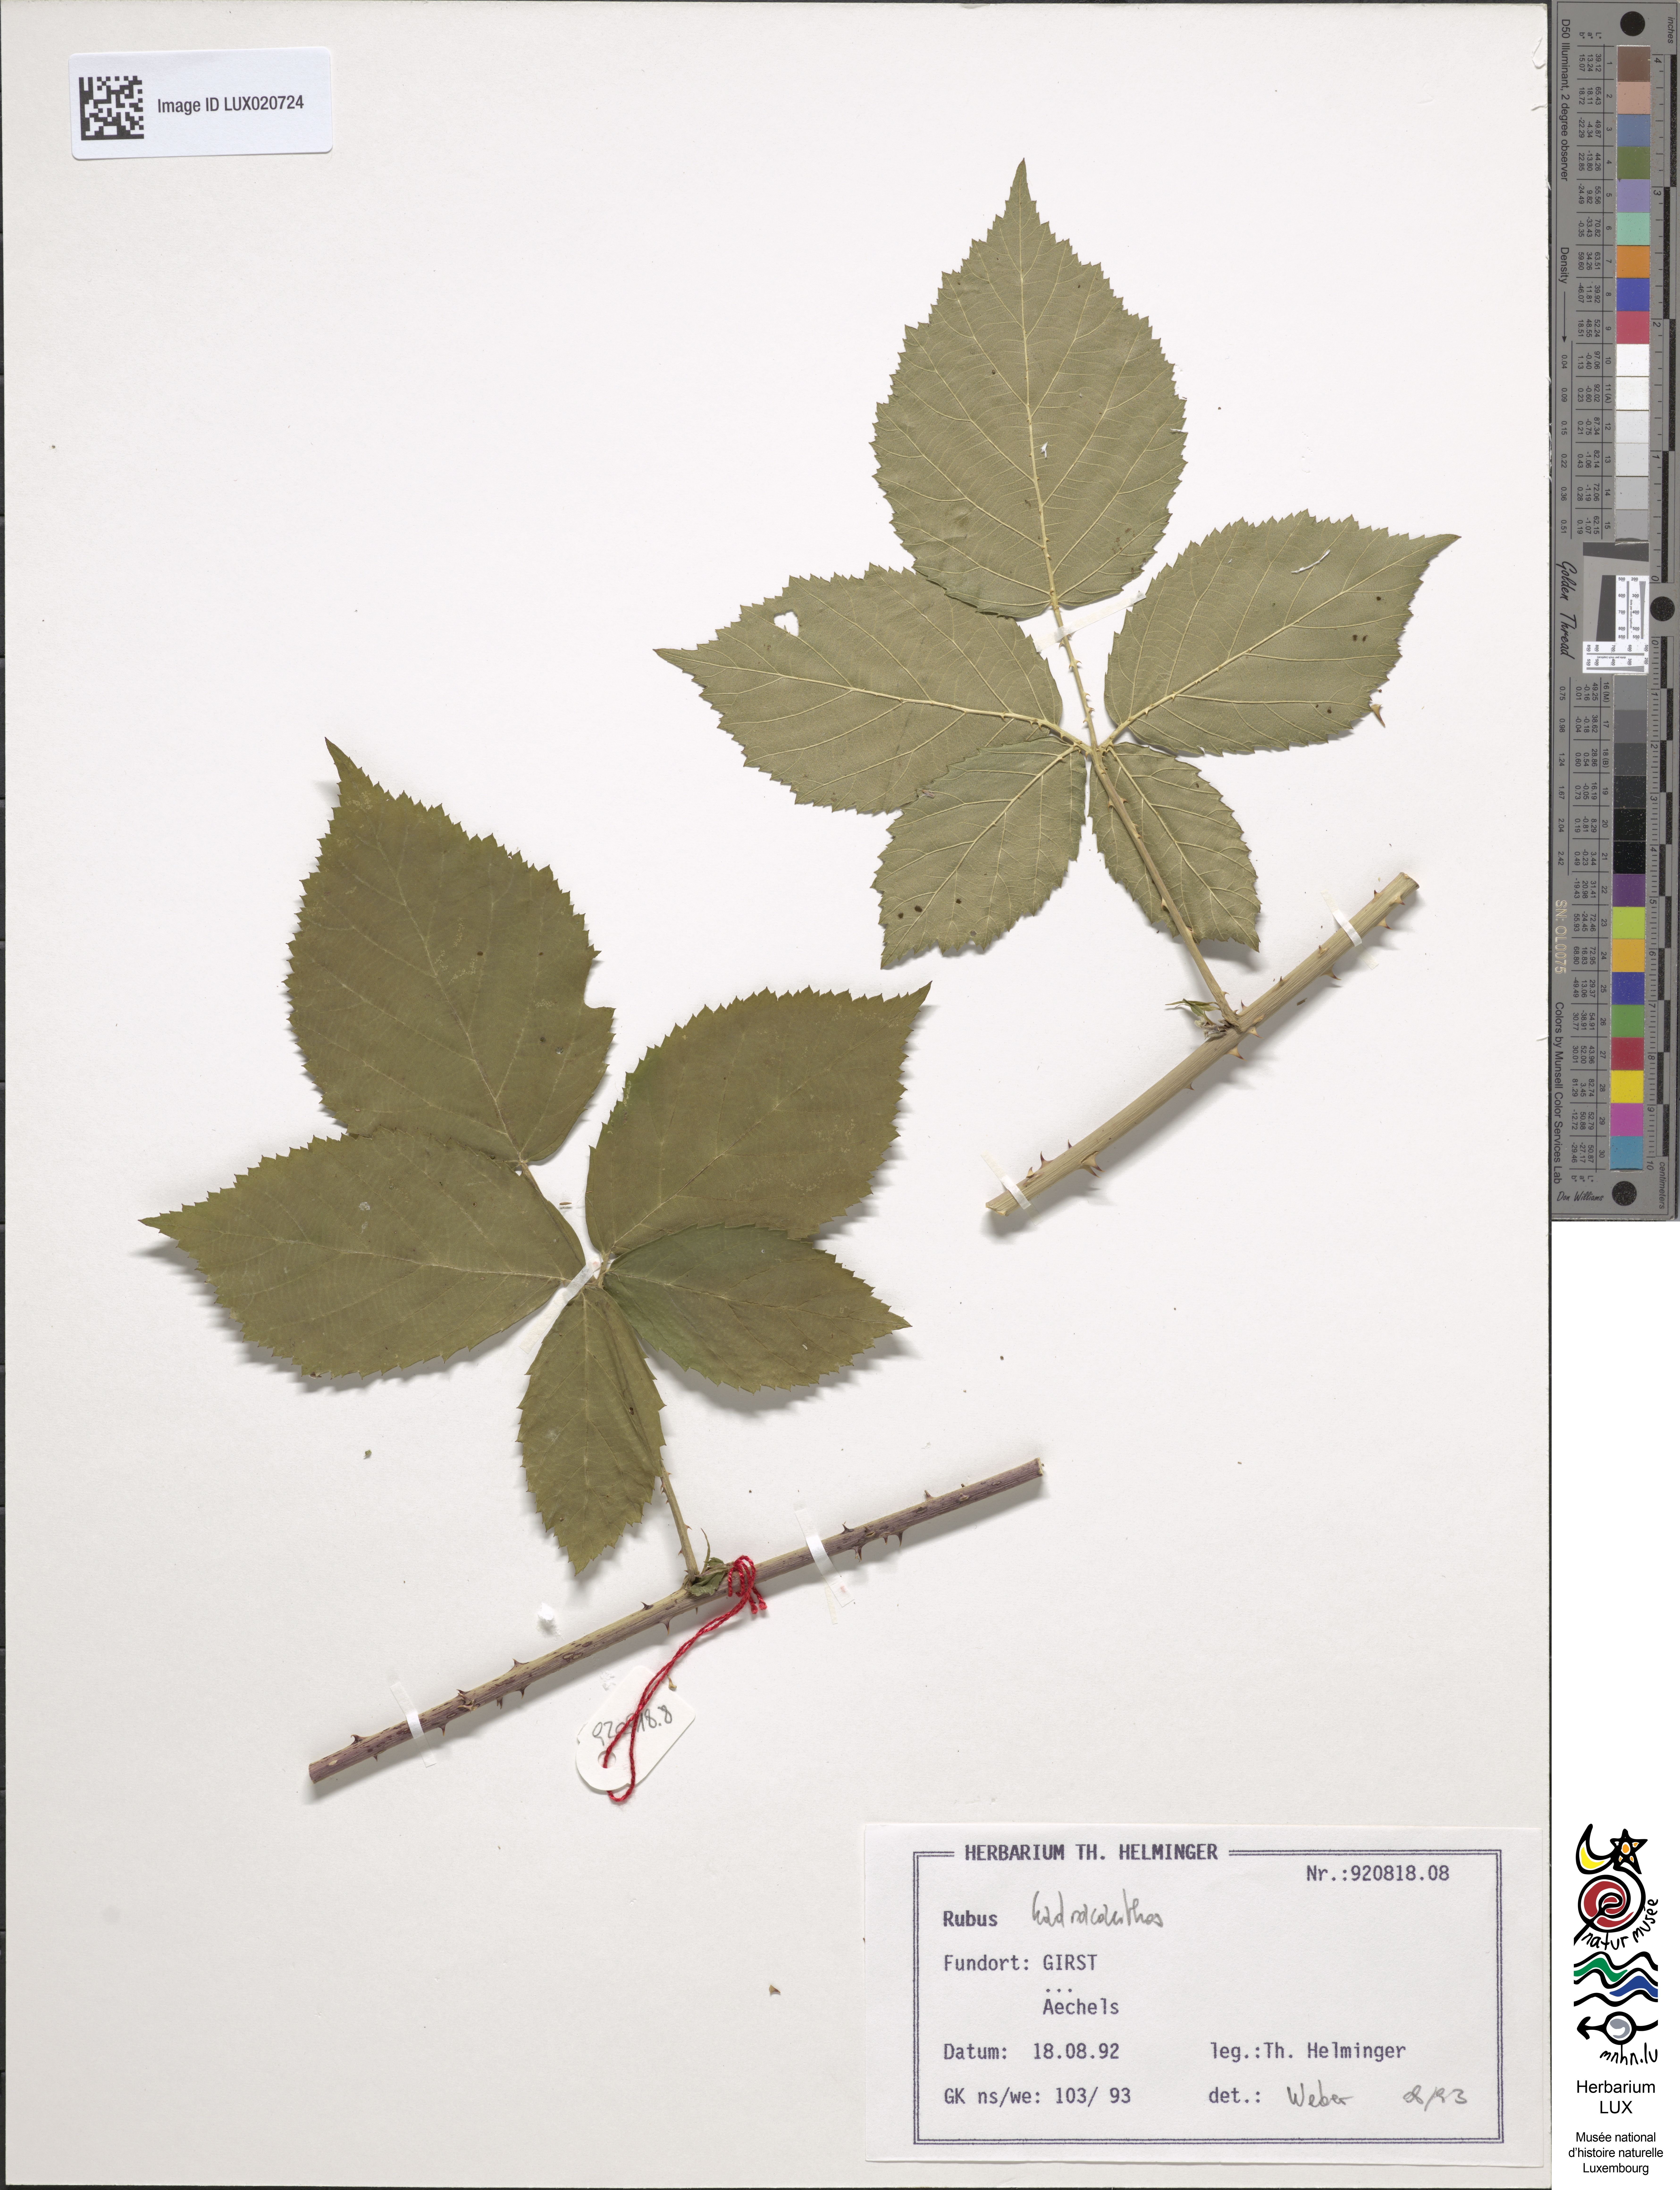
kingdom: Plantae
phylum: Tracheophyta
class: Magnoliopsida
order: Rosales
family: Rosaceae
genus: Rubus
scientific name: Rubus hadracanthos
